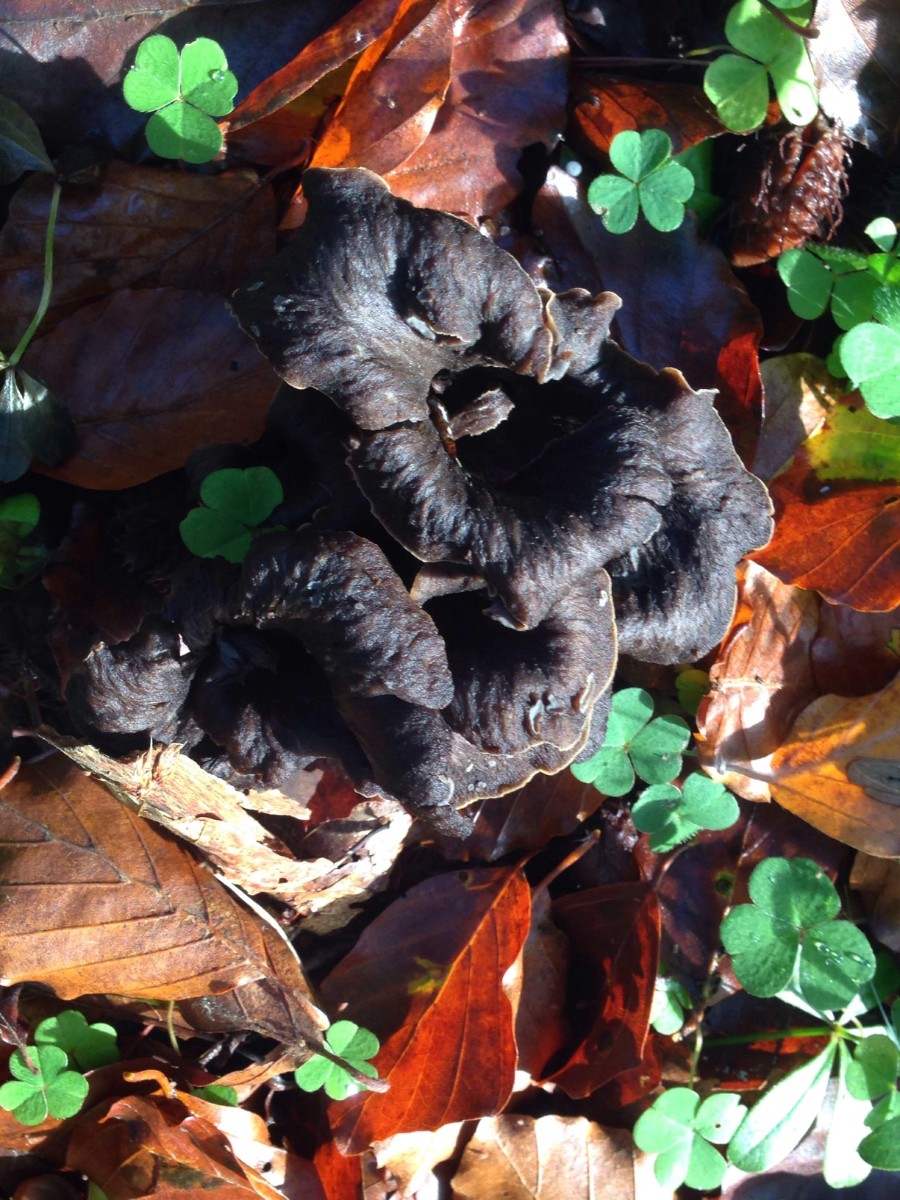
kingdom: Fungi
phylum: Basidiomycota
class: Agaricomycetes
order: Cantharellales
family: Hydnaceae
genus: Craterellus
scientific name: Craterellus cornucopioides
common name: trompetsvamp
